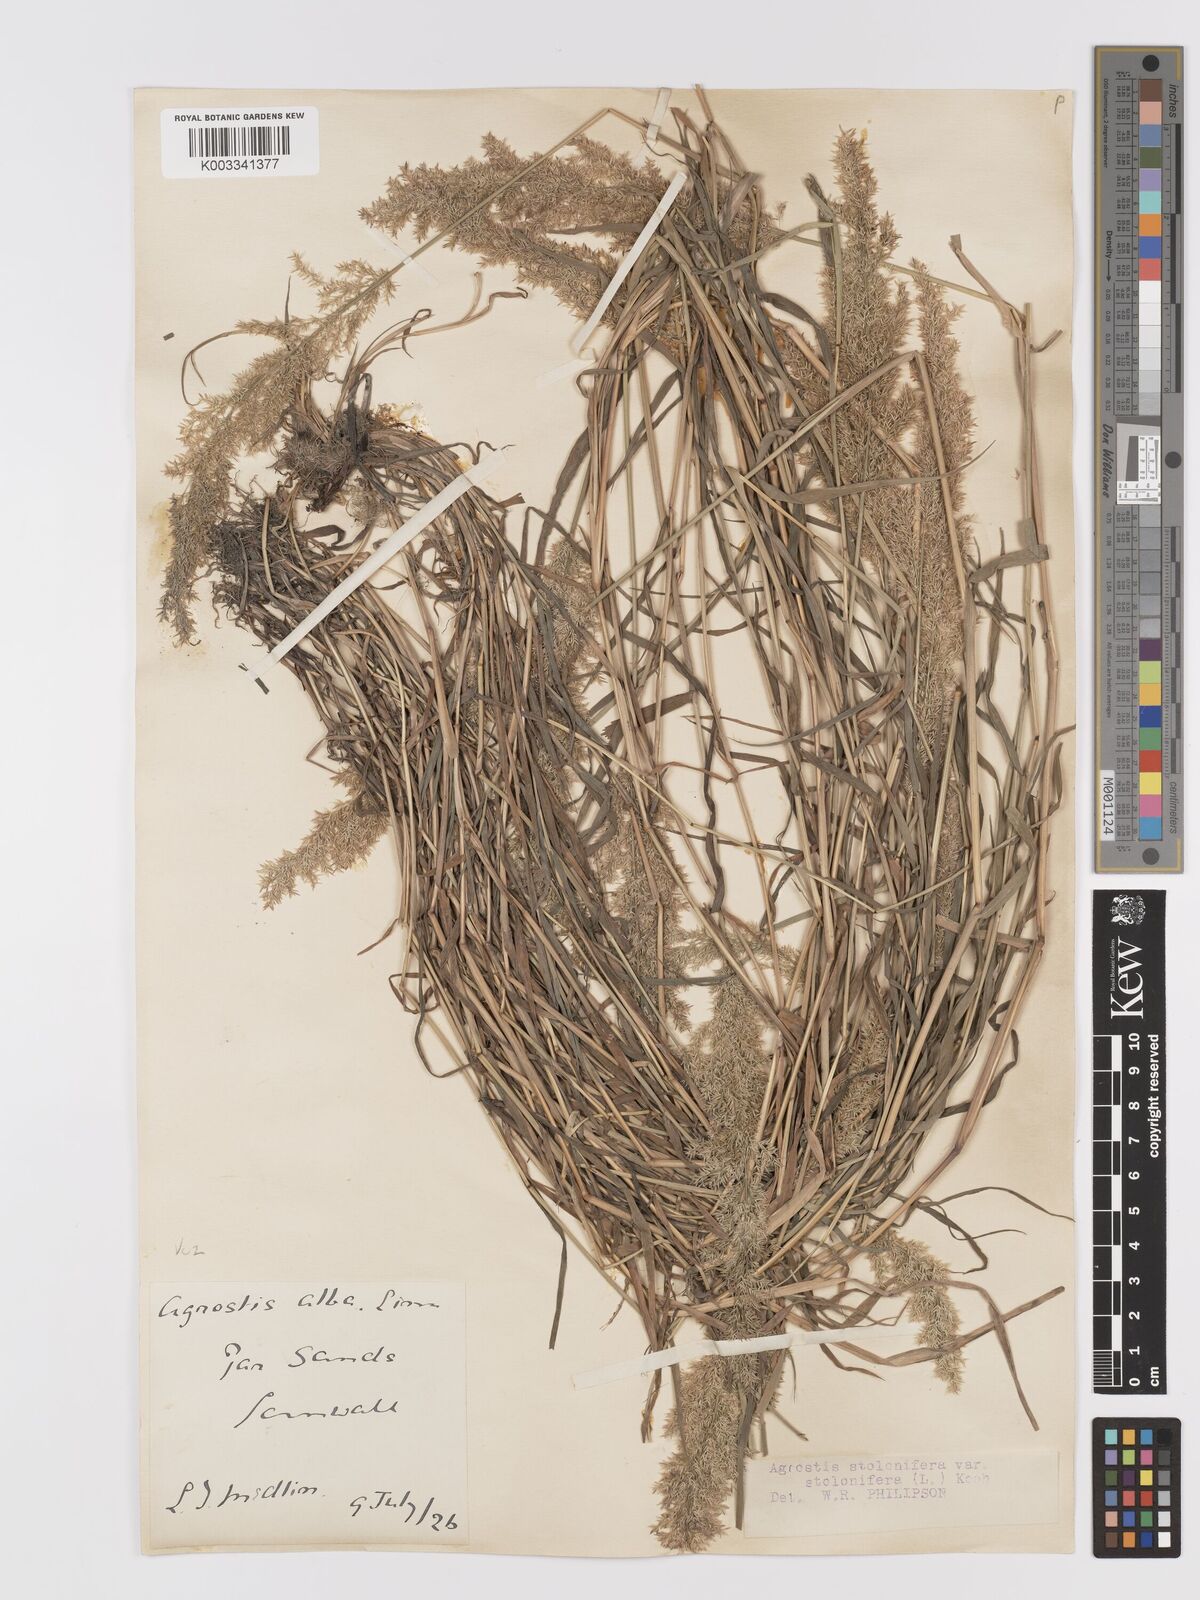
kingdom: Plantae
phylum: Tracheophyta
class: Liliopsida
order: Poales
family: Poaceae
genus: Agrostis
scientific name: Agrostis stolonifera
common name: Creeping bentgrass
